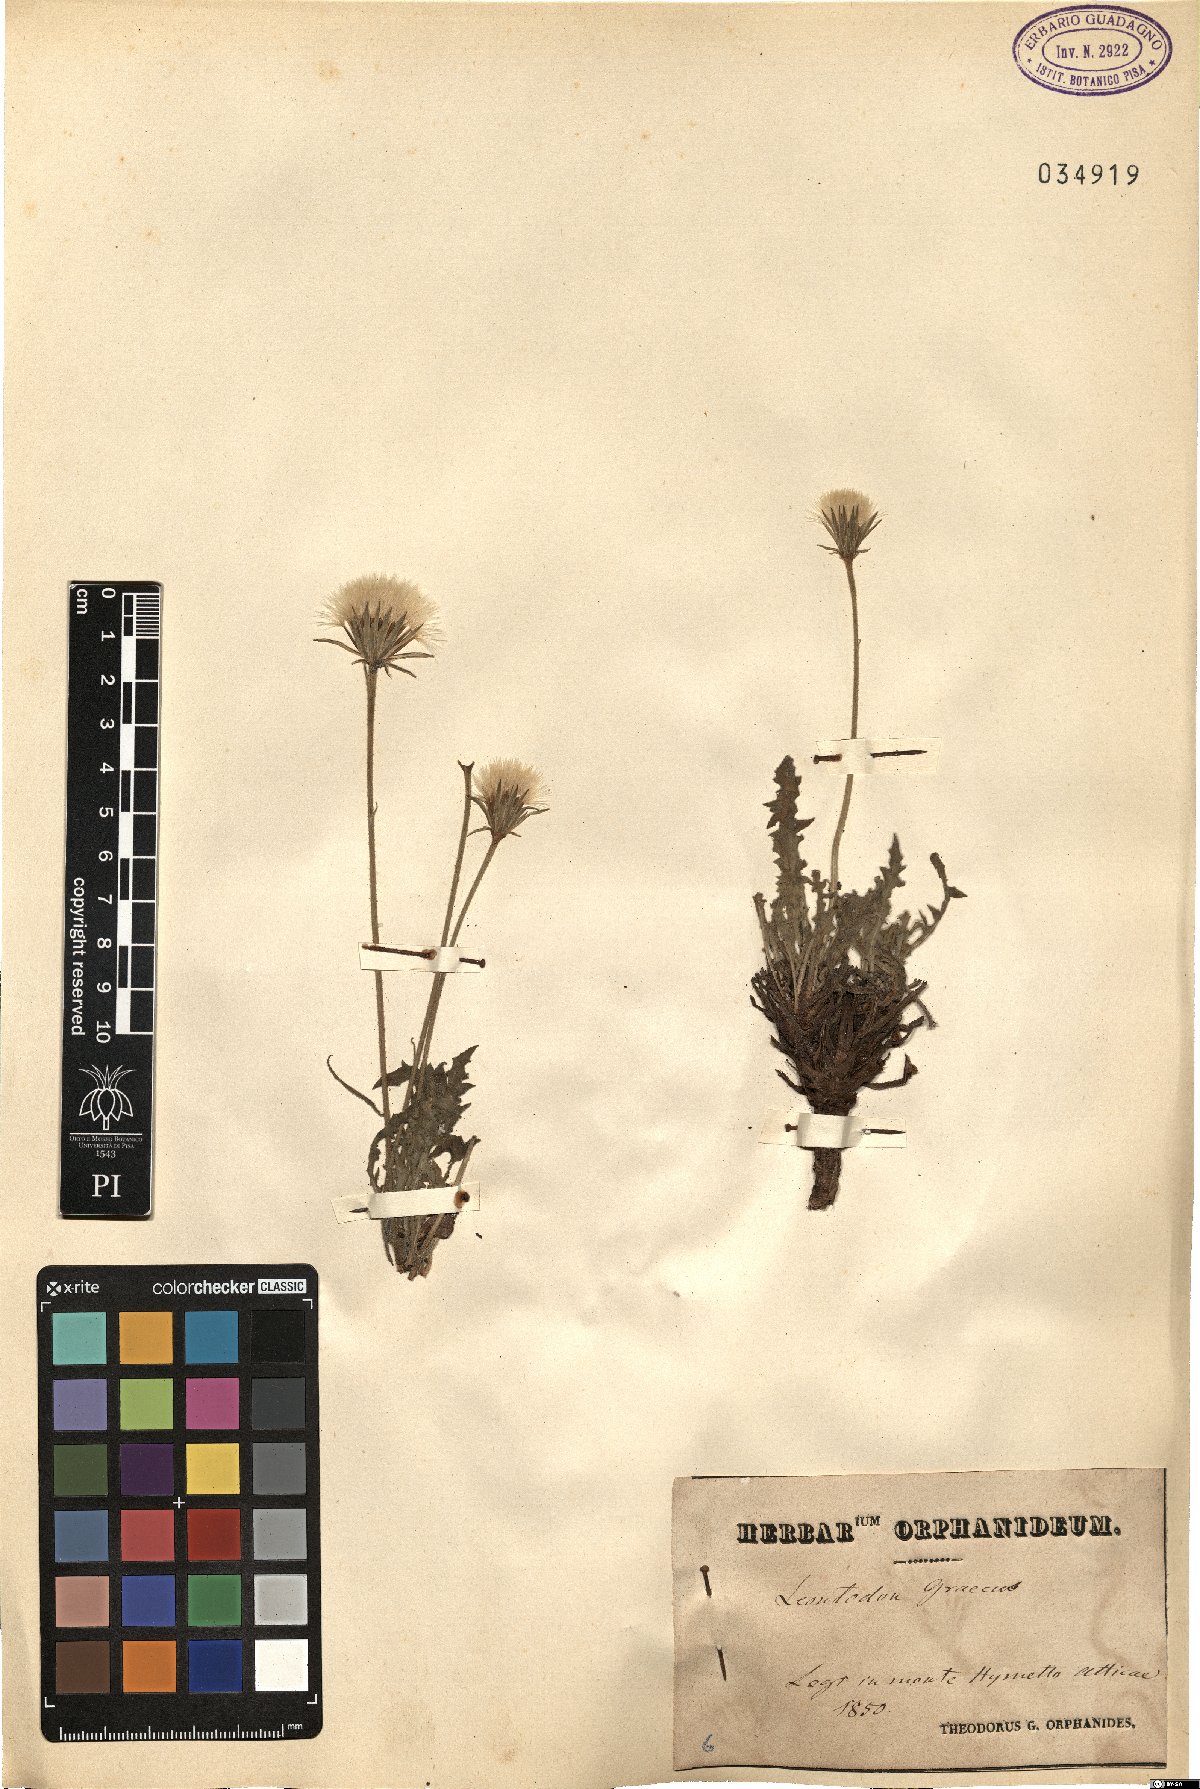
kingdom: Plantae
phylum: Tracheophyta
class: Magnoliopsida
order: Asterales
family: Asteraceae
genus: Leontodon
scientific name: Leontodon graecus
